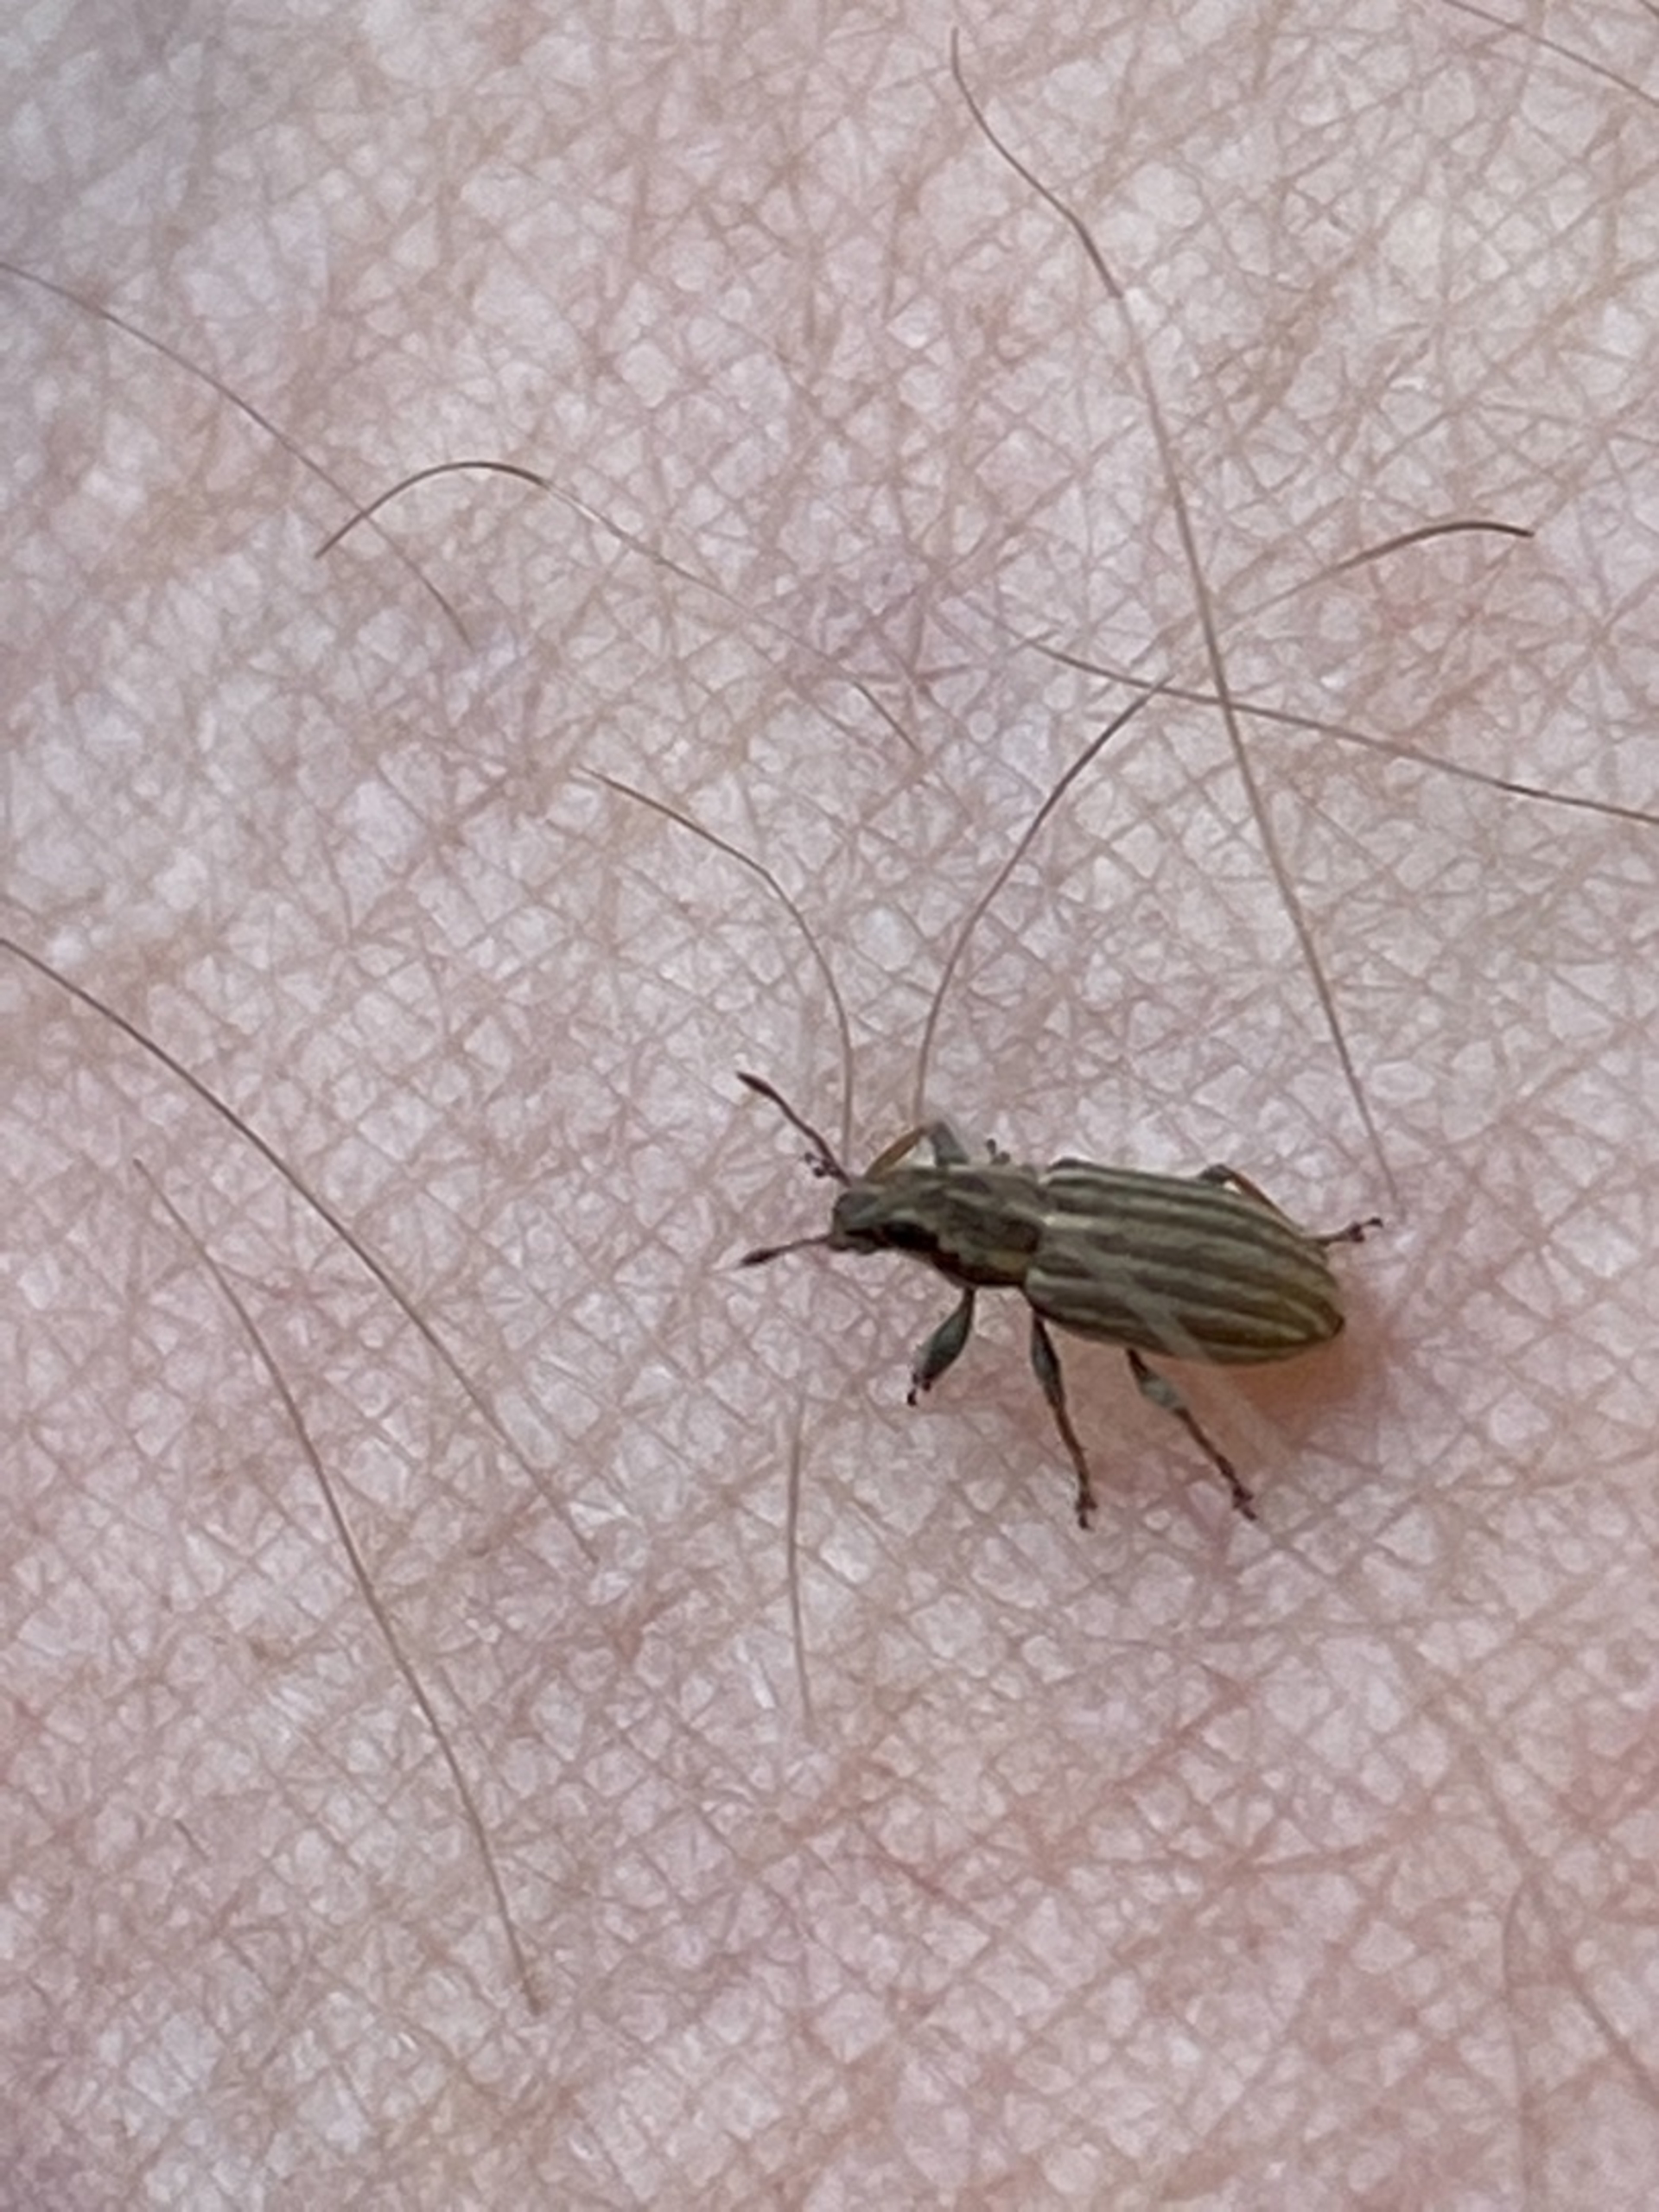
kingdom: Animalia
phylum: Arthropoda
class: Insecta
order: Coleoptera
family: Curculionidae
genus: Sitona
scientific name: Sitona lineatus
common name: Stribet bladrandbille
